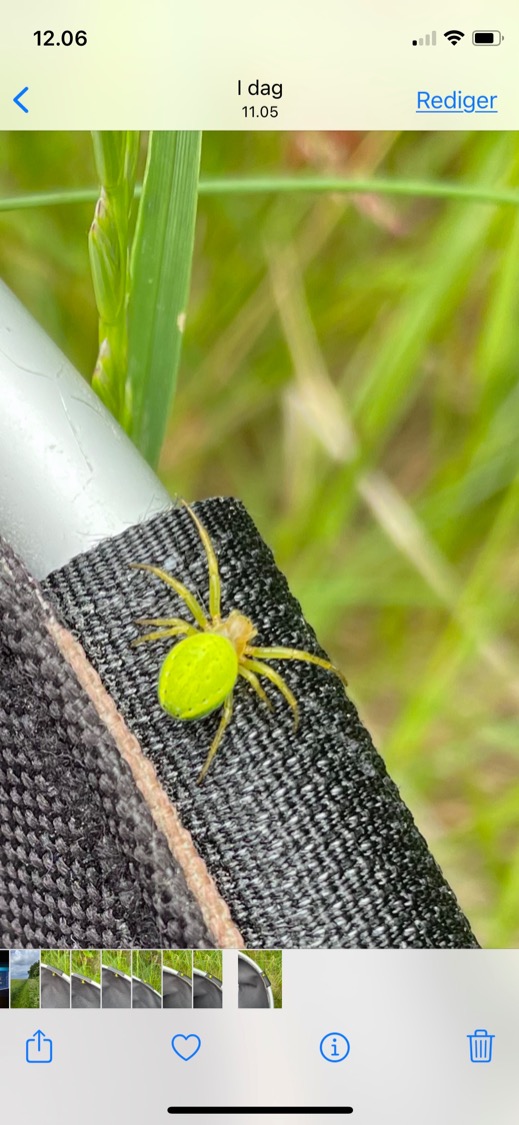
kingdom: Animalia
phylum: Arthropoda
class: Arachnida
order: Araneae
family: Araneidae
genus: Araniella
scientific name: Araniella
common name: Agurkeedderkopslægten
